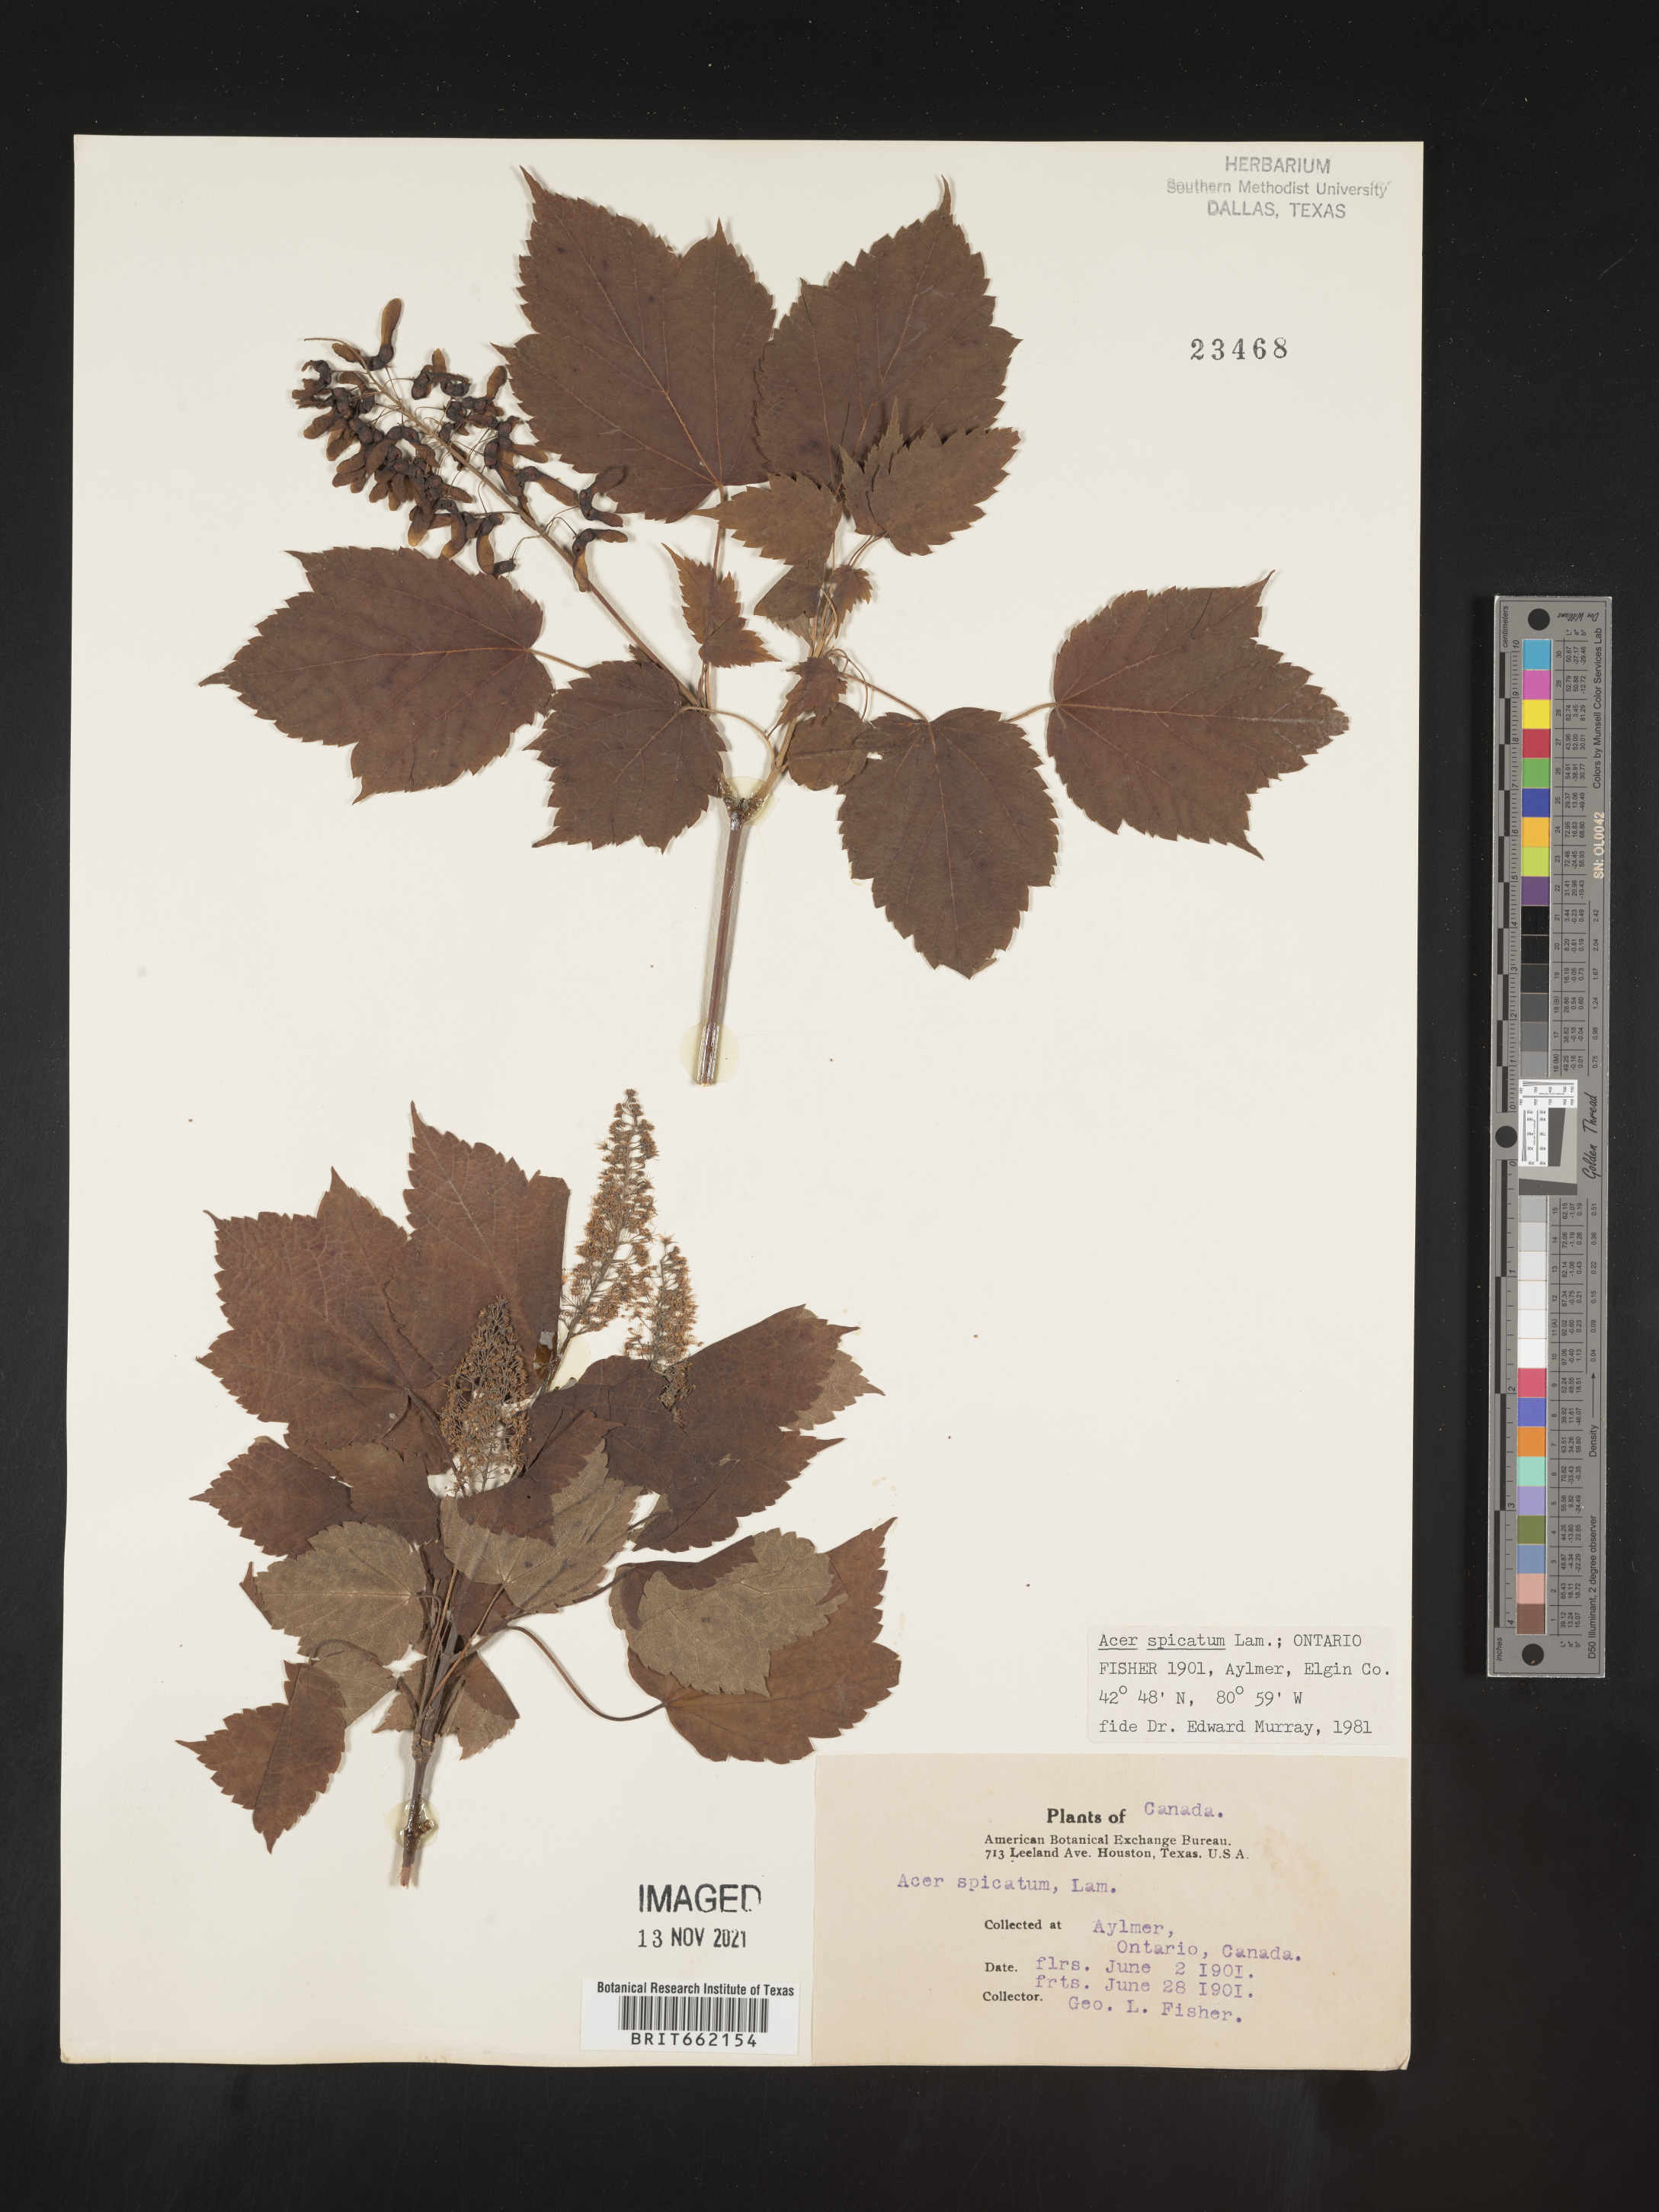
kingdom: Plantae
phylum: Tracheophyta
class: Magnoliopsida
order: Sapindales
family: Sapindaceae
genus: Acer
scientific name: Acer spicatum
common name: Mountain maple
